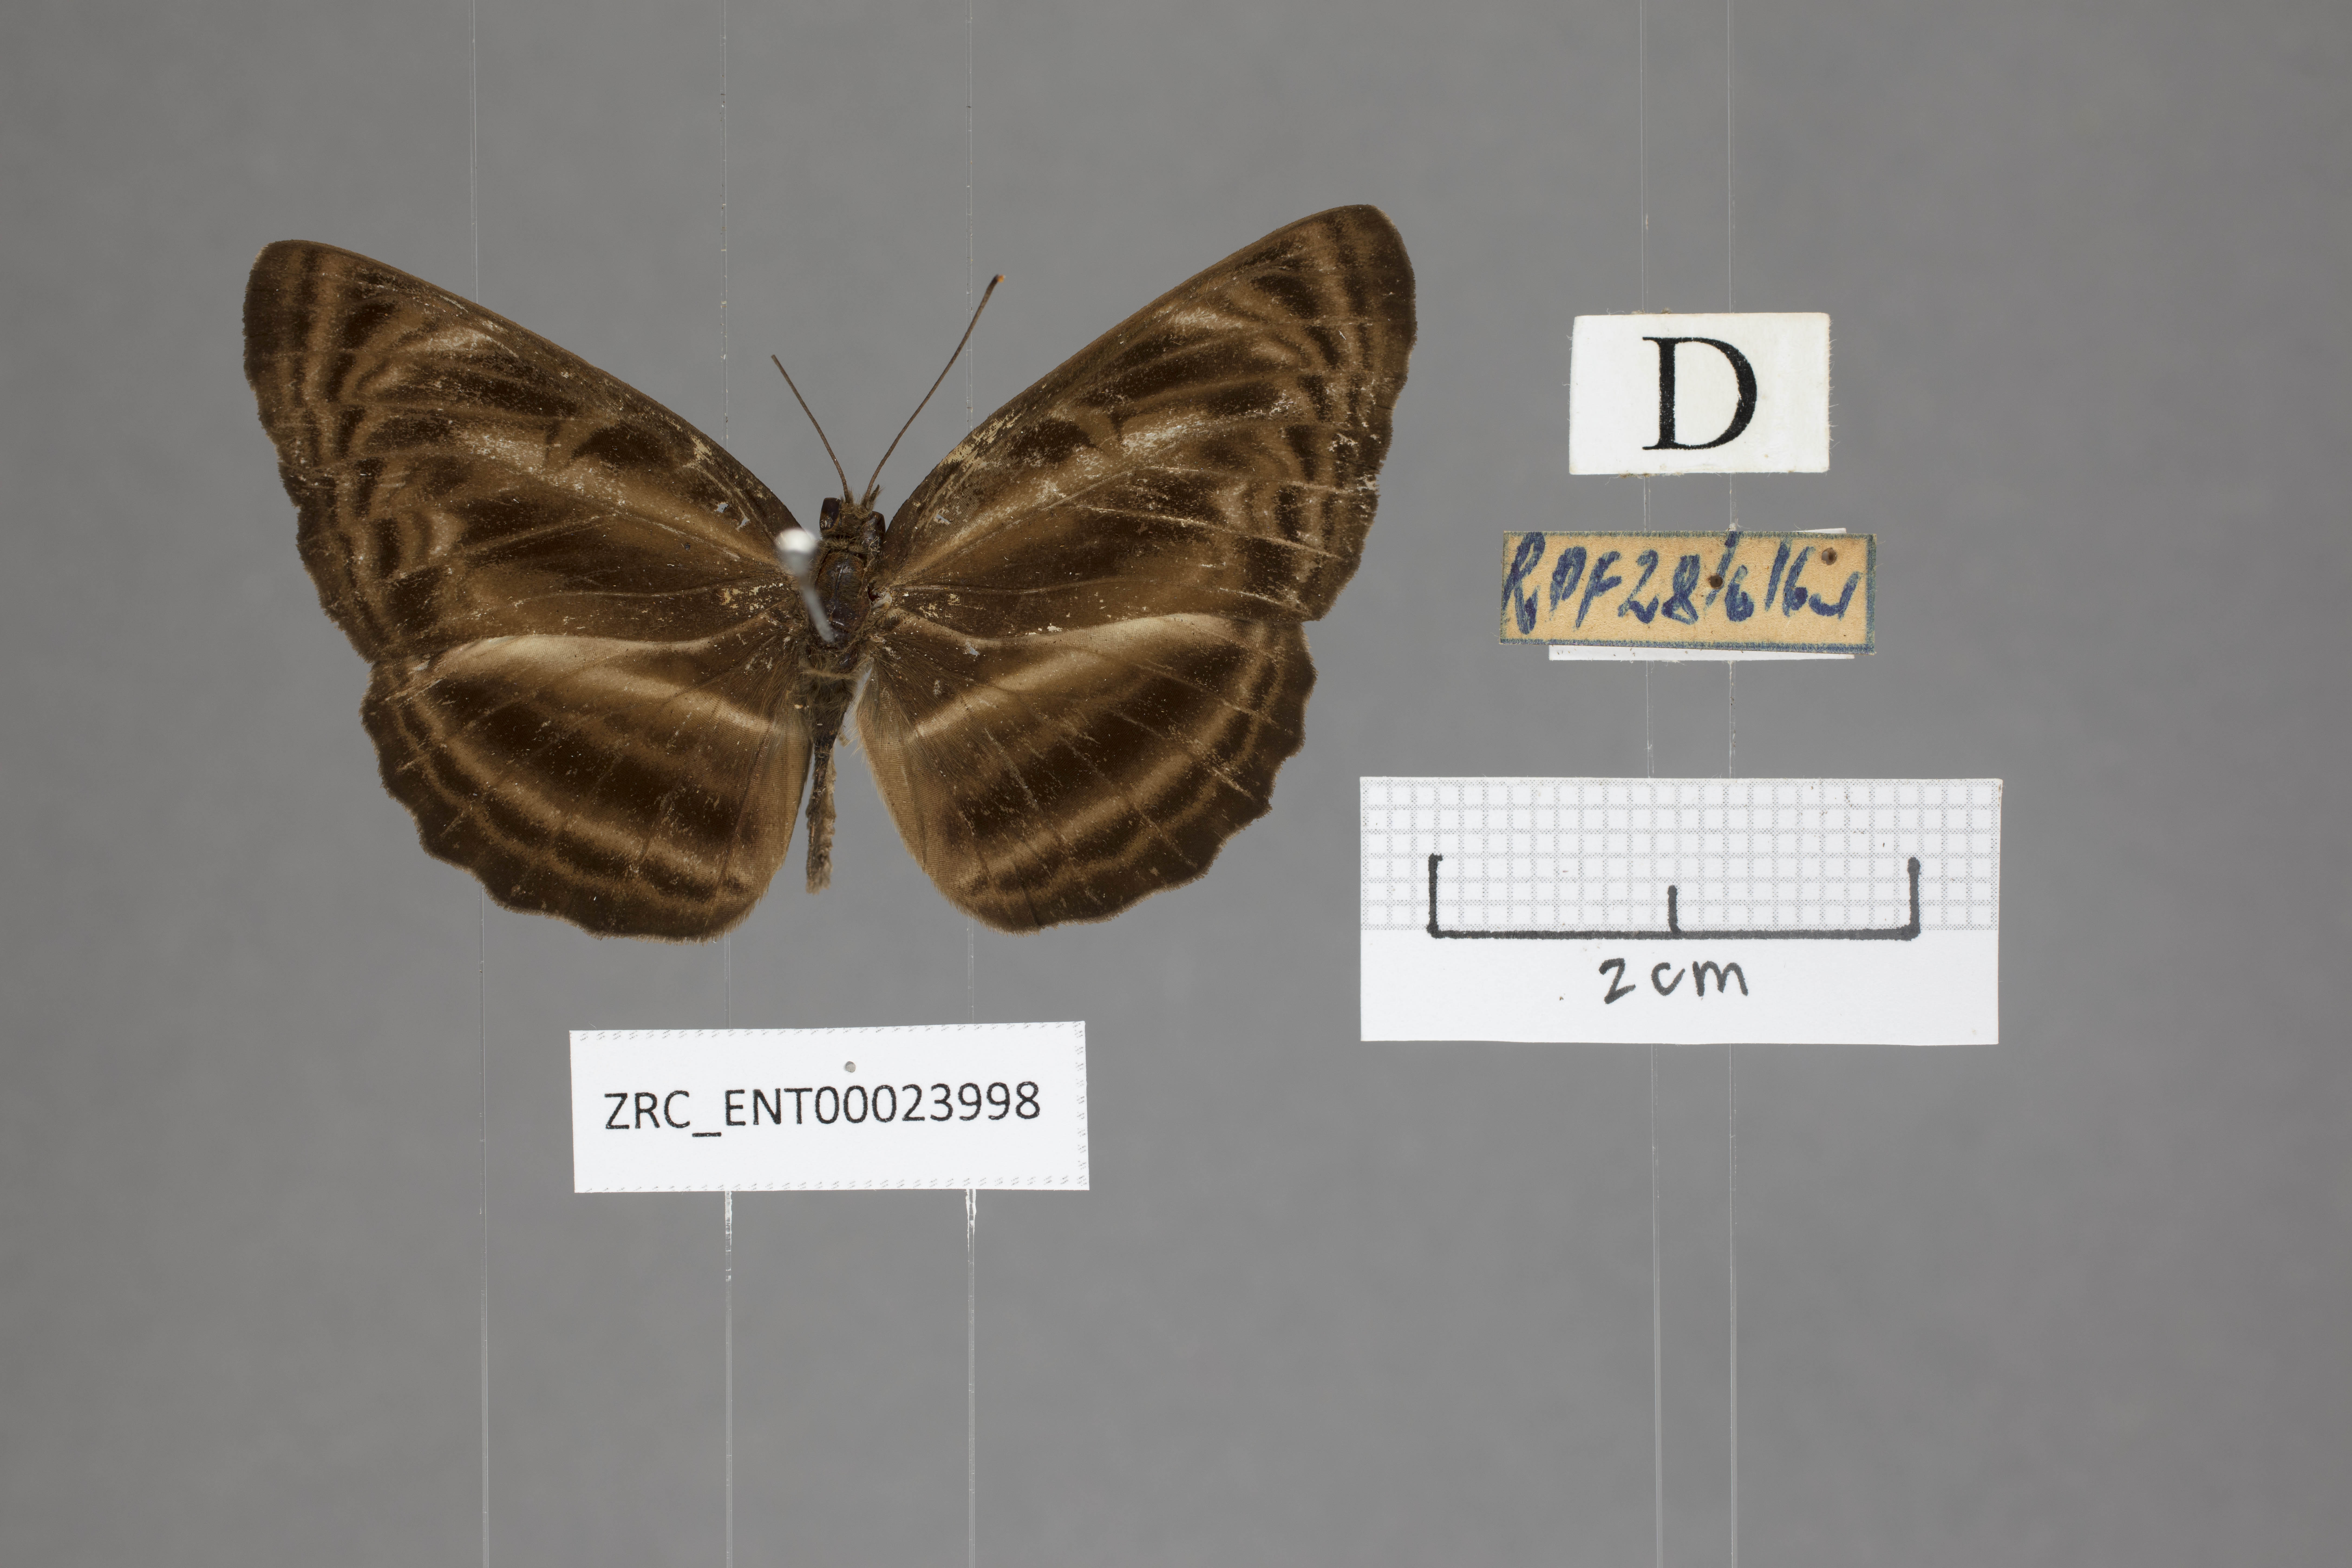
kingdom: Animalia
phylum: Arthropoda
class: Insecta
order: Lepidoptera
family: Nymphalidae
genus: Neptis
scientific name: Neptis harita
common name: Chocolate sailer
